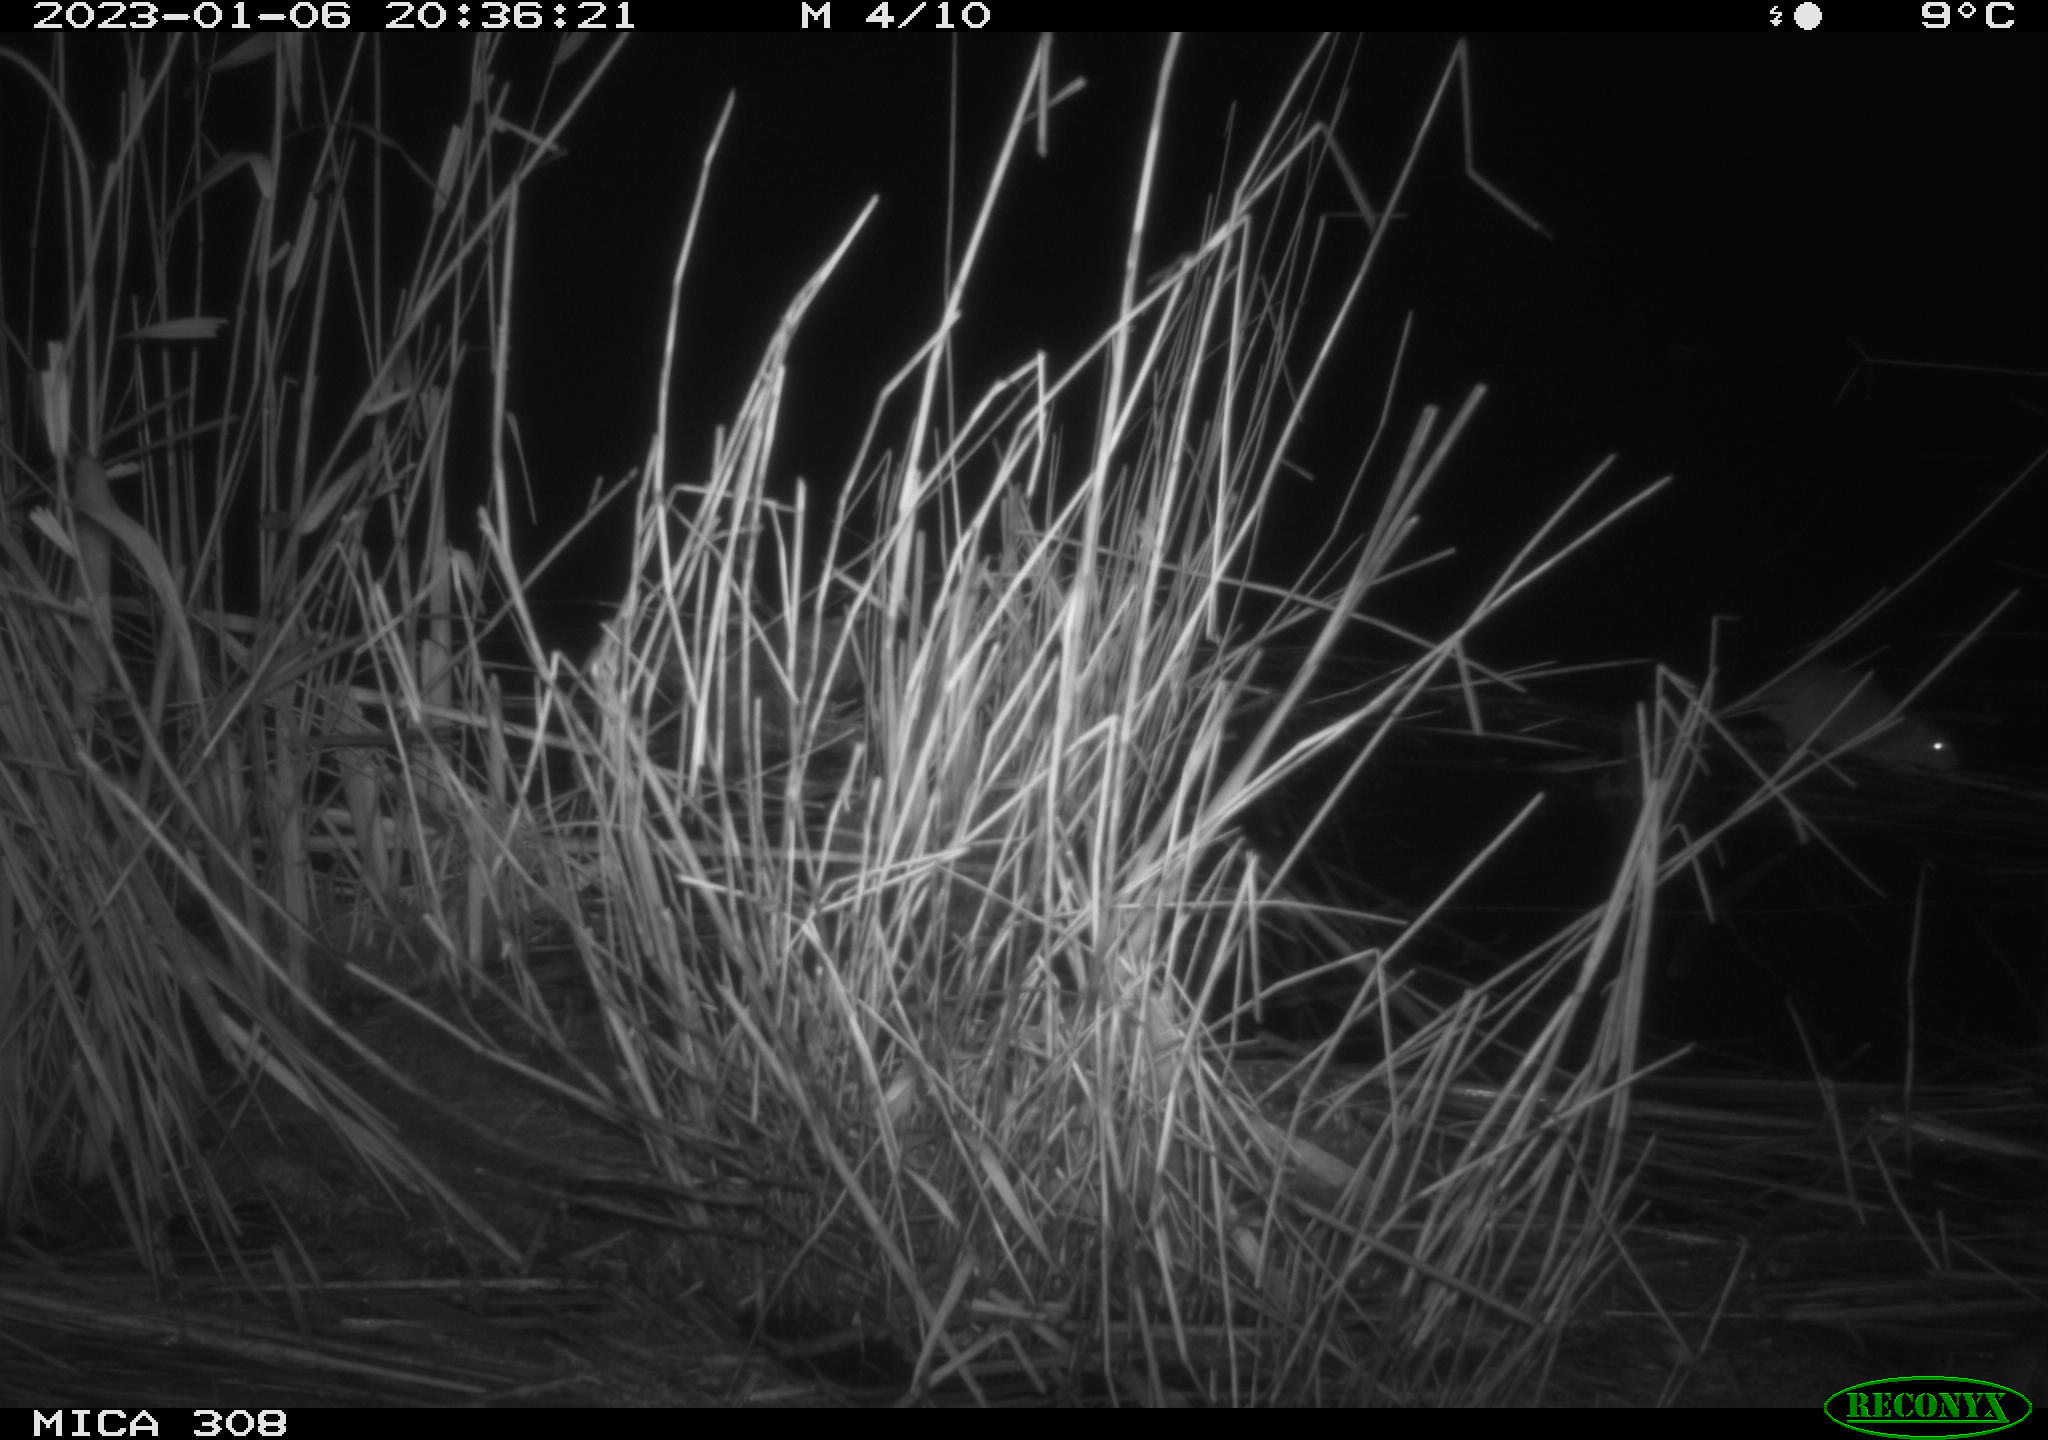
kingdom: Animalia
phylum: Chordata
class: Mammalia
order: Rodentia
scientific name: Rodentia
